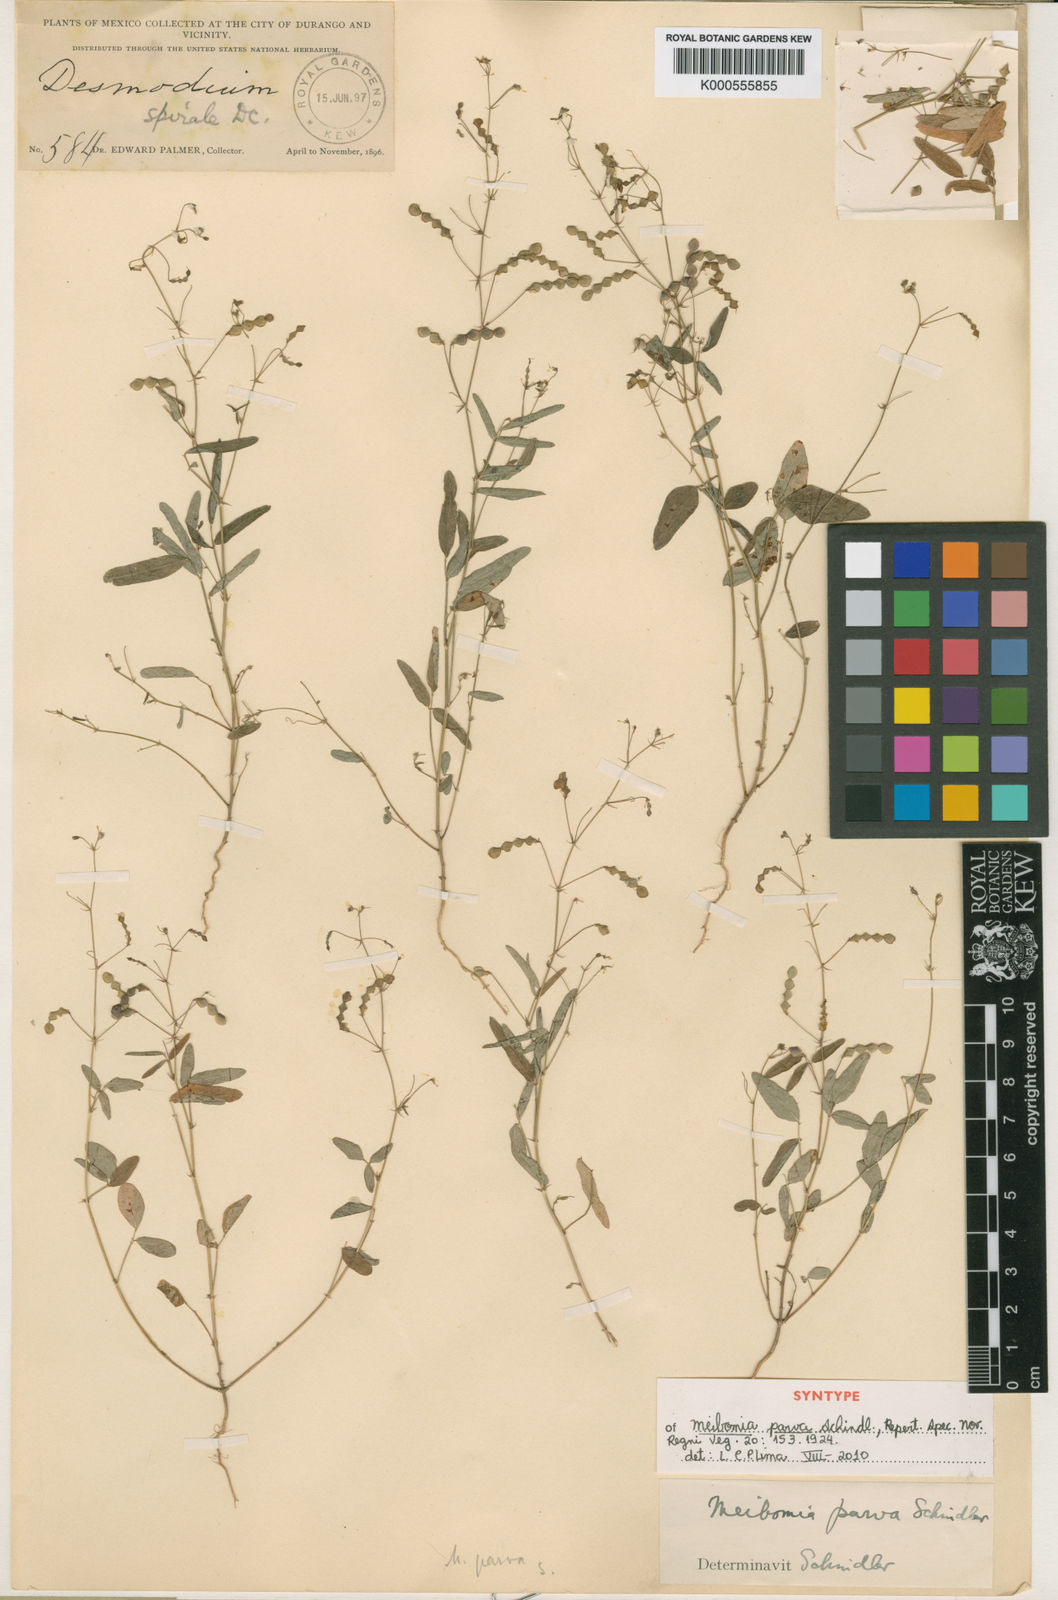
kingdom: Plantae
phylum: Tracheophyta
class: Magnoliopsida
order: Fabales
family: Fabaceae
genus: Desmodium
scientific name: Desmodium procumbens
